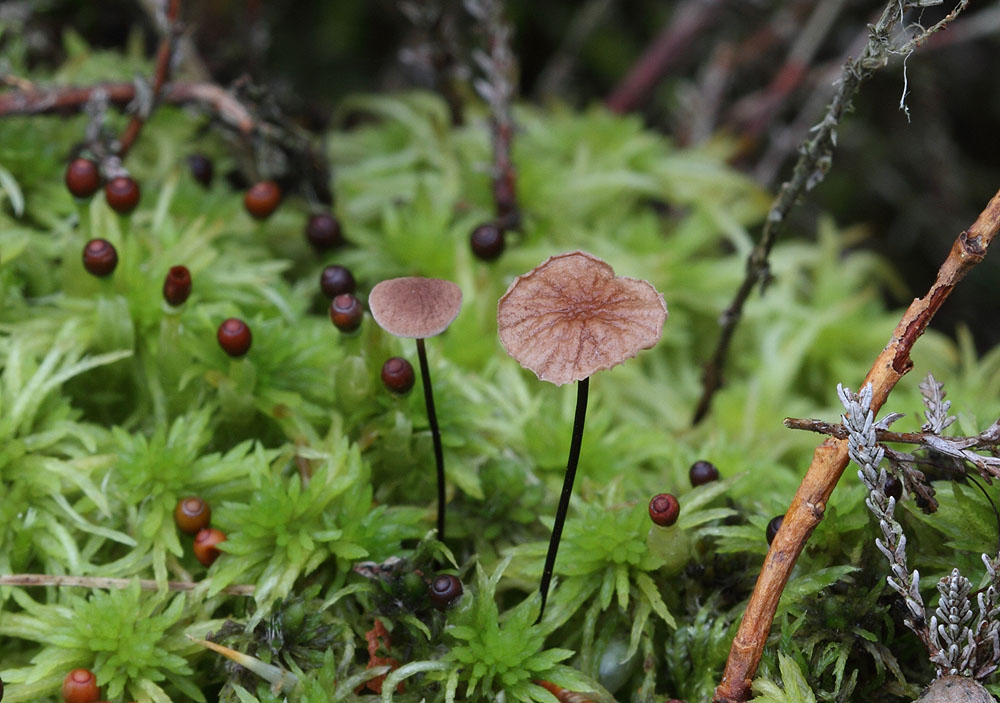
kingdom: Fungi
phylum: Basidiomycota
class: Agaricomycetes
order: Agaricales
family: Omphalotaceae
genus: Gymnopus
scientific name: Gymnopus androsaceus
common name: trådstokket fladhat
